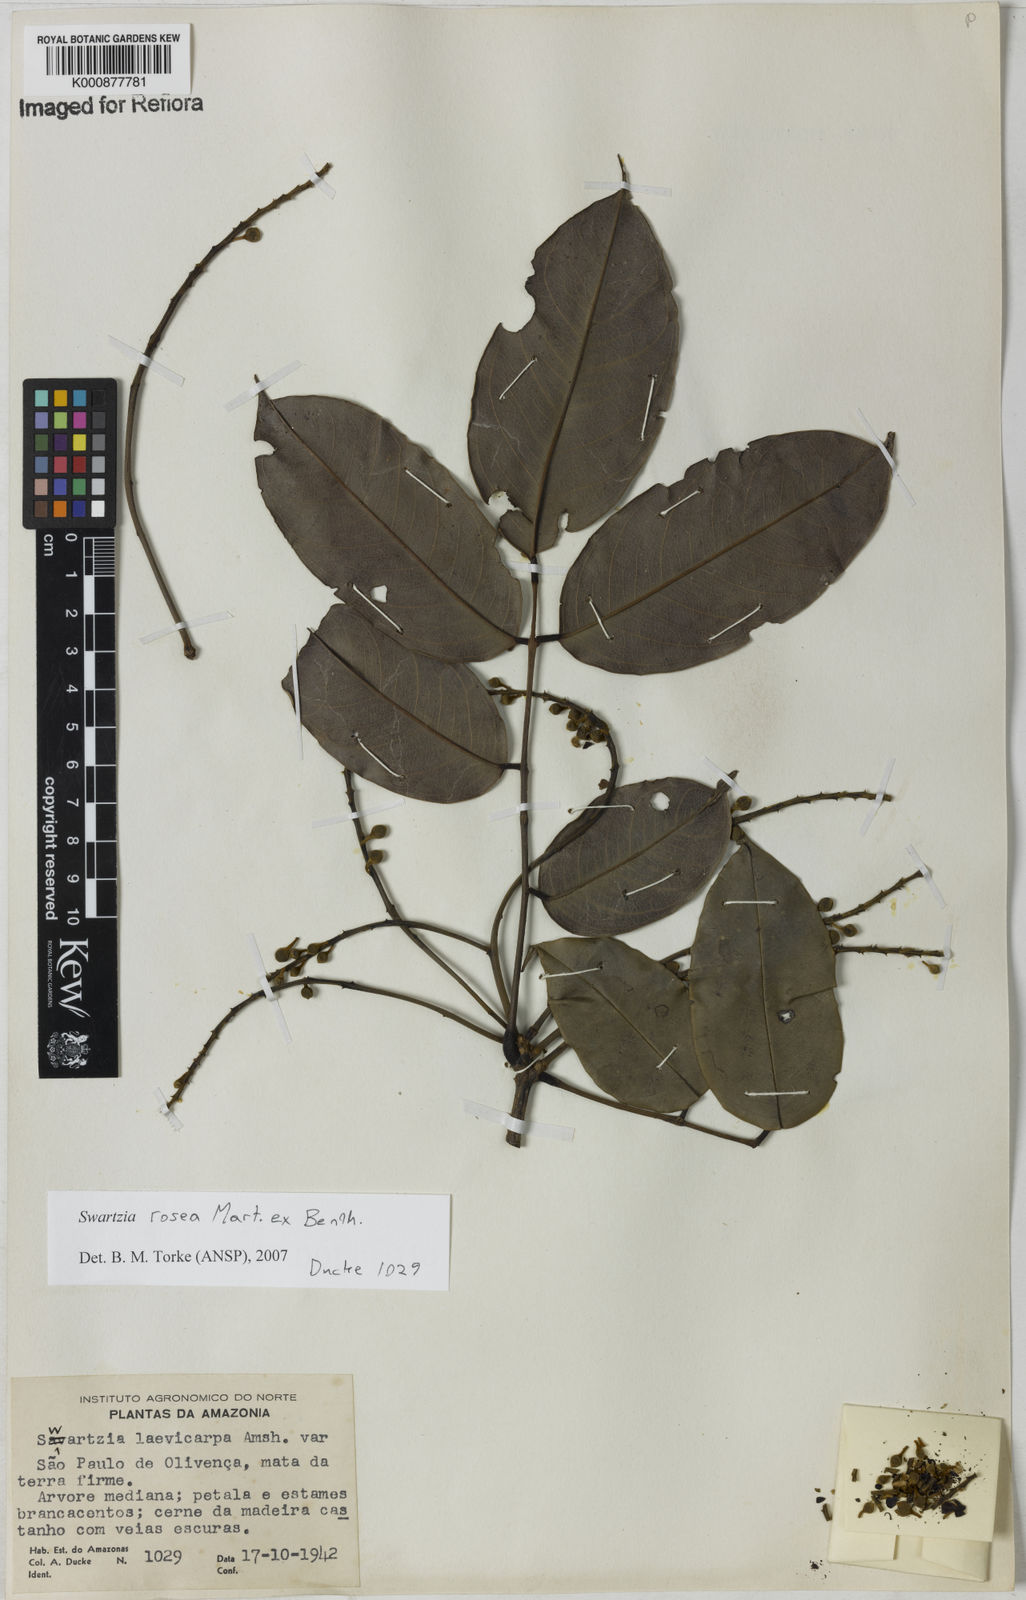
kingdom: Plantae
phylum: Tracheophyta
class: Magnoliopsida
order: Fabales
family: Fabaceae
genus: Swartzia
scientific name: Swartzia rosea
